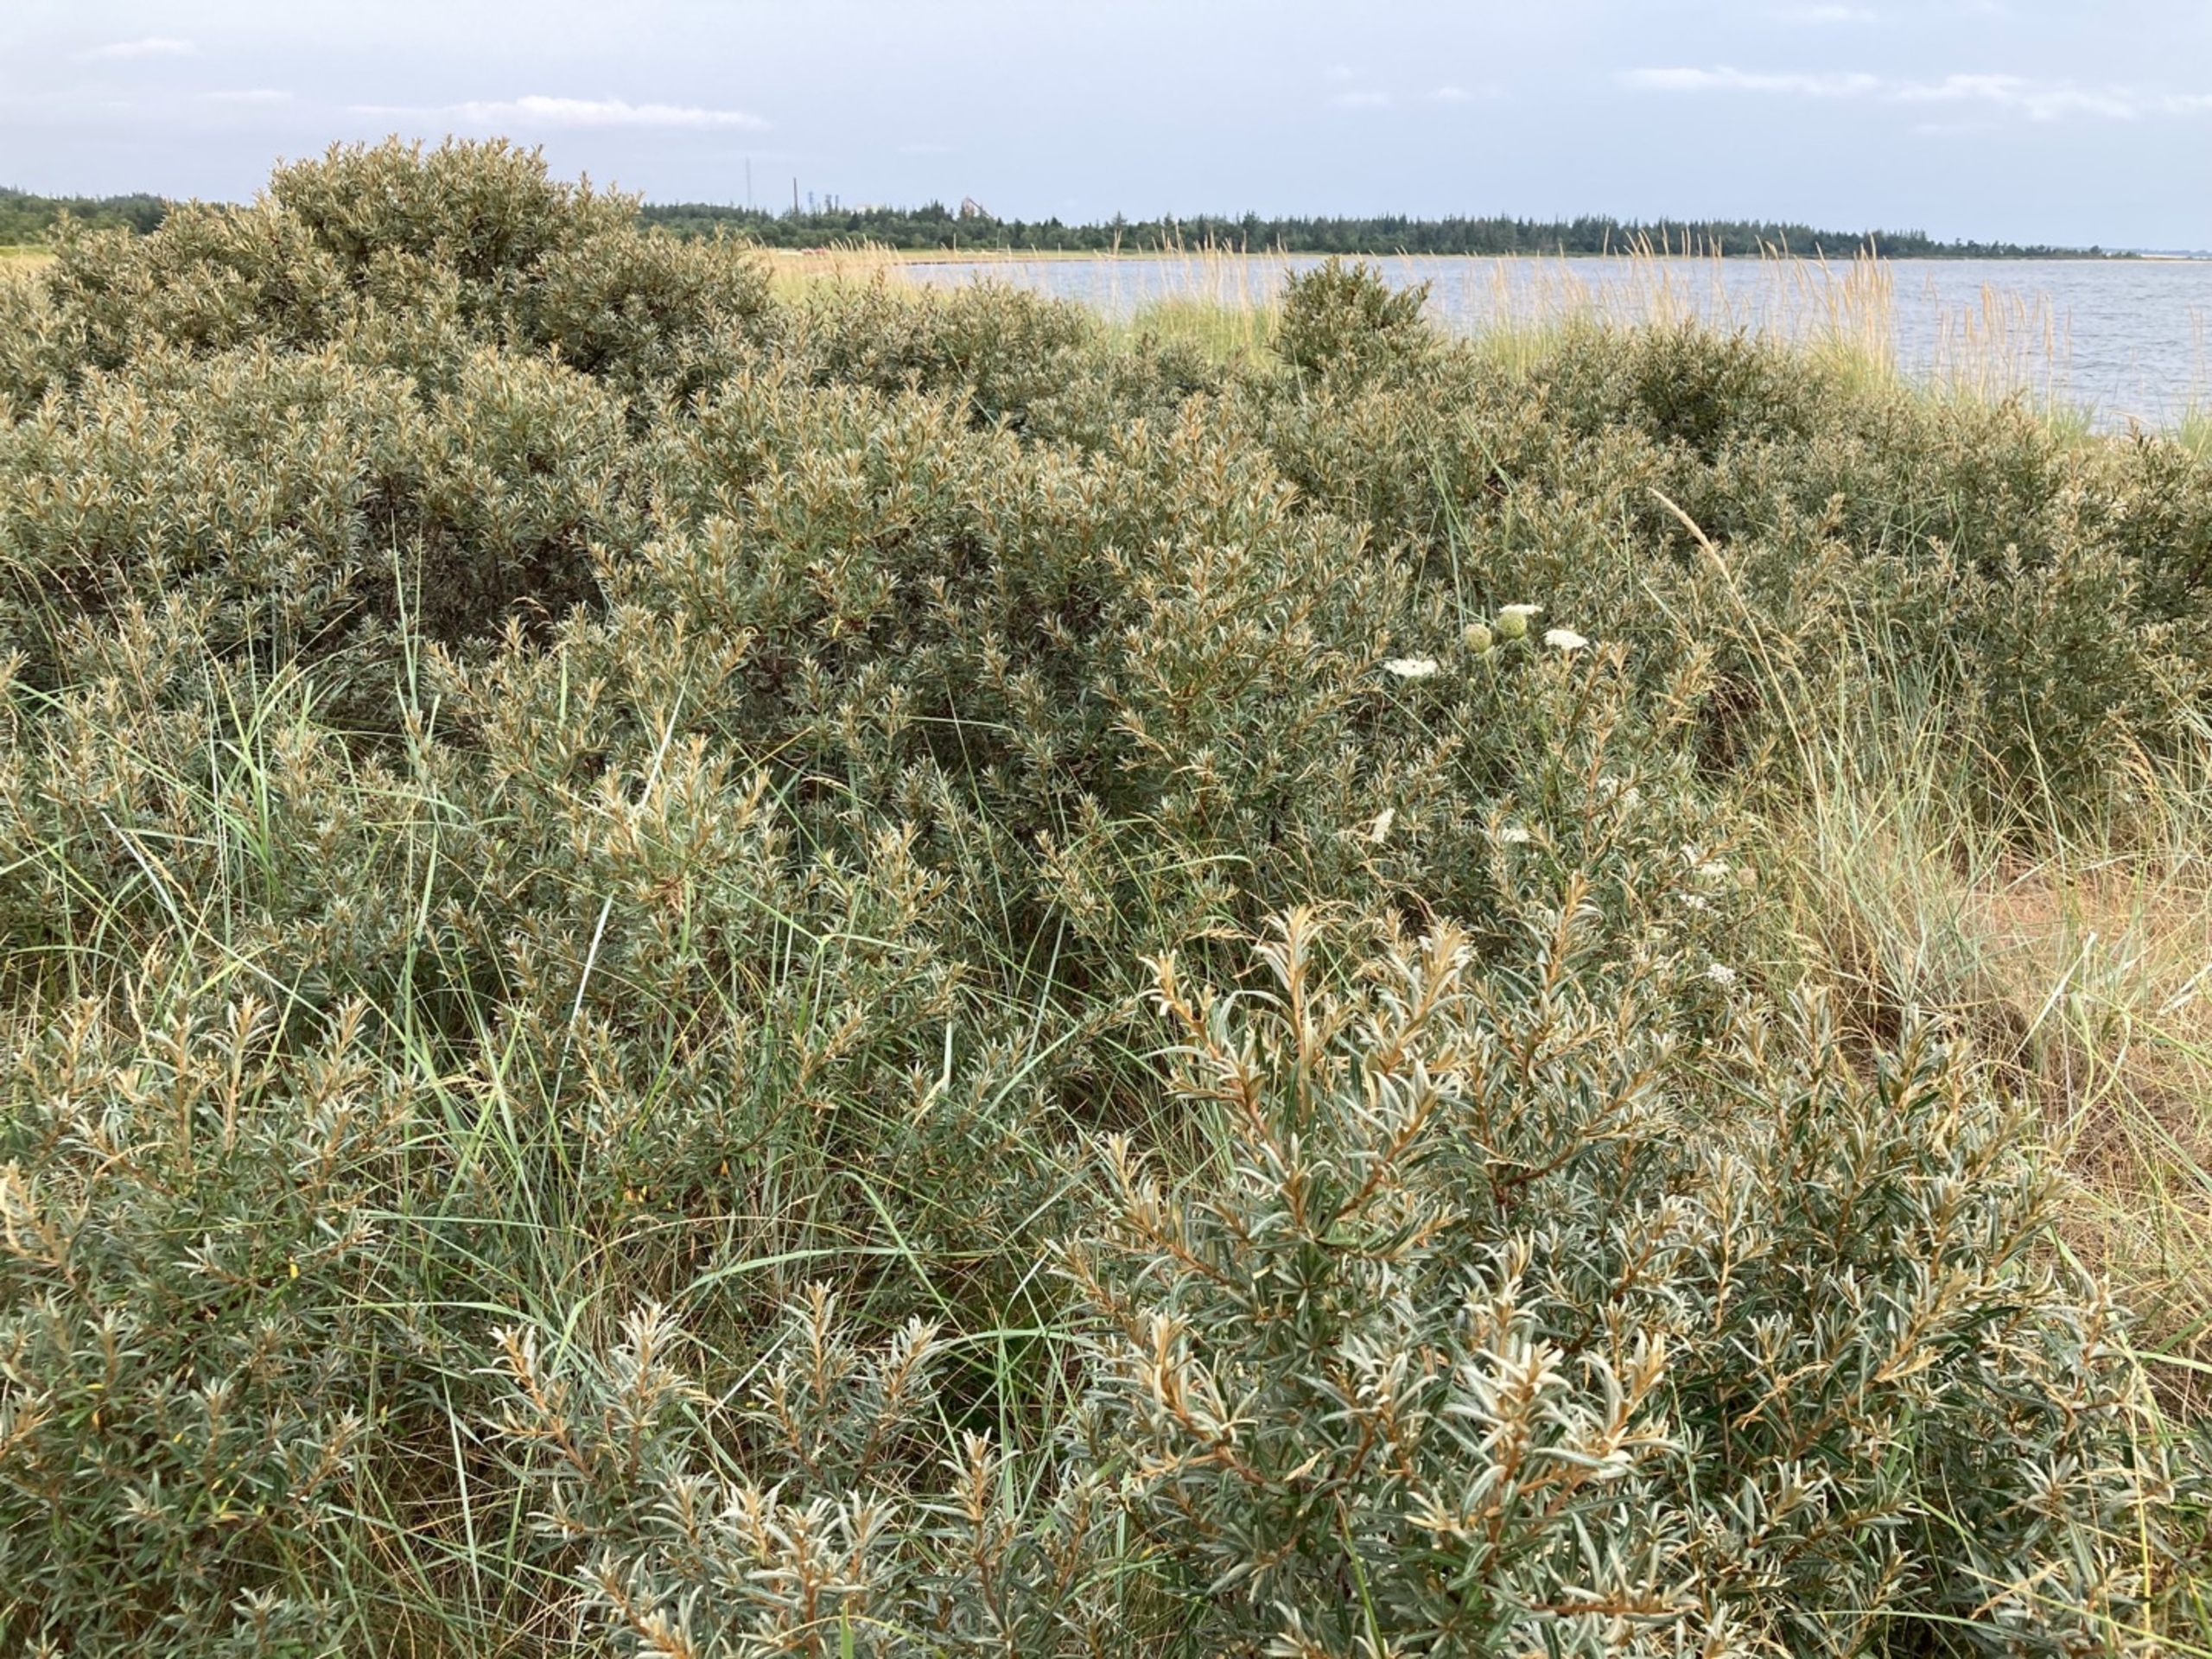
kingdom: Plantae
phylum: Tracheophyta
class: Magnoliopsida
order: Rosales
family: Elaeagnaceae
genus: Hippophae
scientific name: Hippophae rhamnoides
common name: Havtorn
